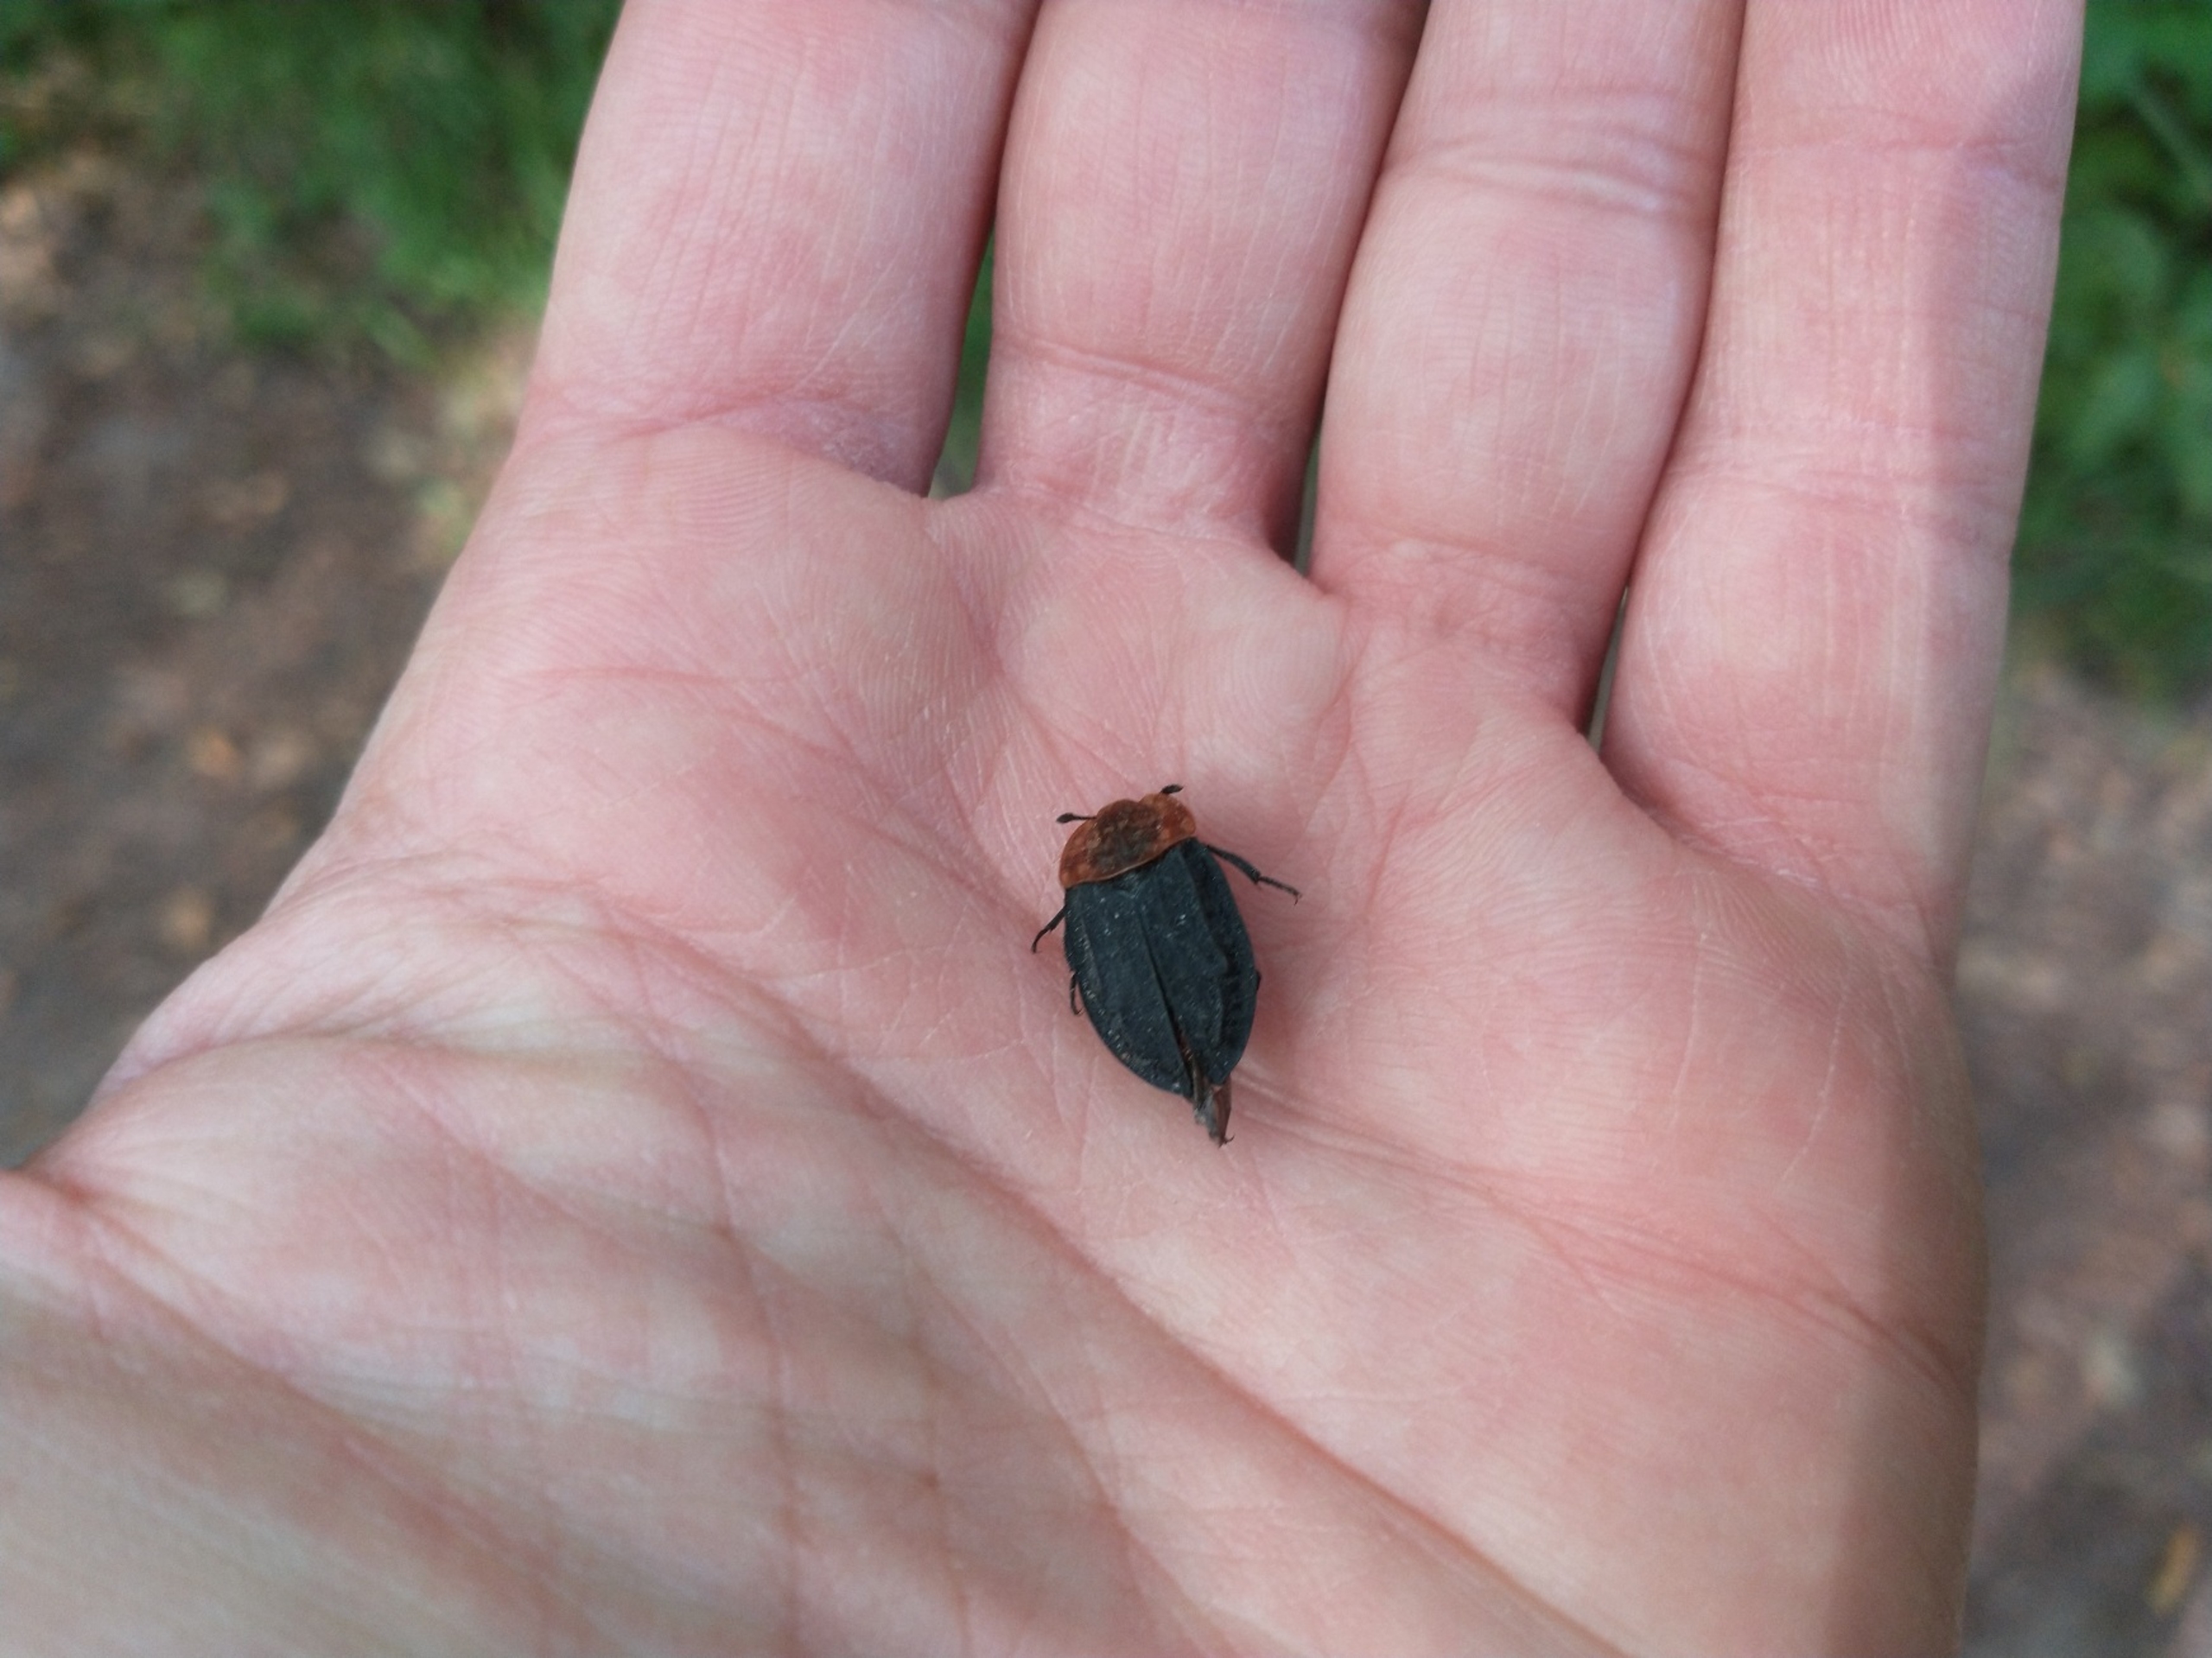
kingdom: Animalia
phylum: Arthropoda
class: Insecta
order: Coleoptera
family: Staphylinidae
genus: Oiceoptoma
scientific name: Oiceoptoma thoracicum
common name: Rødbrystet ådselbille
